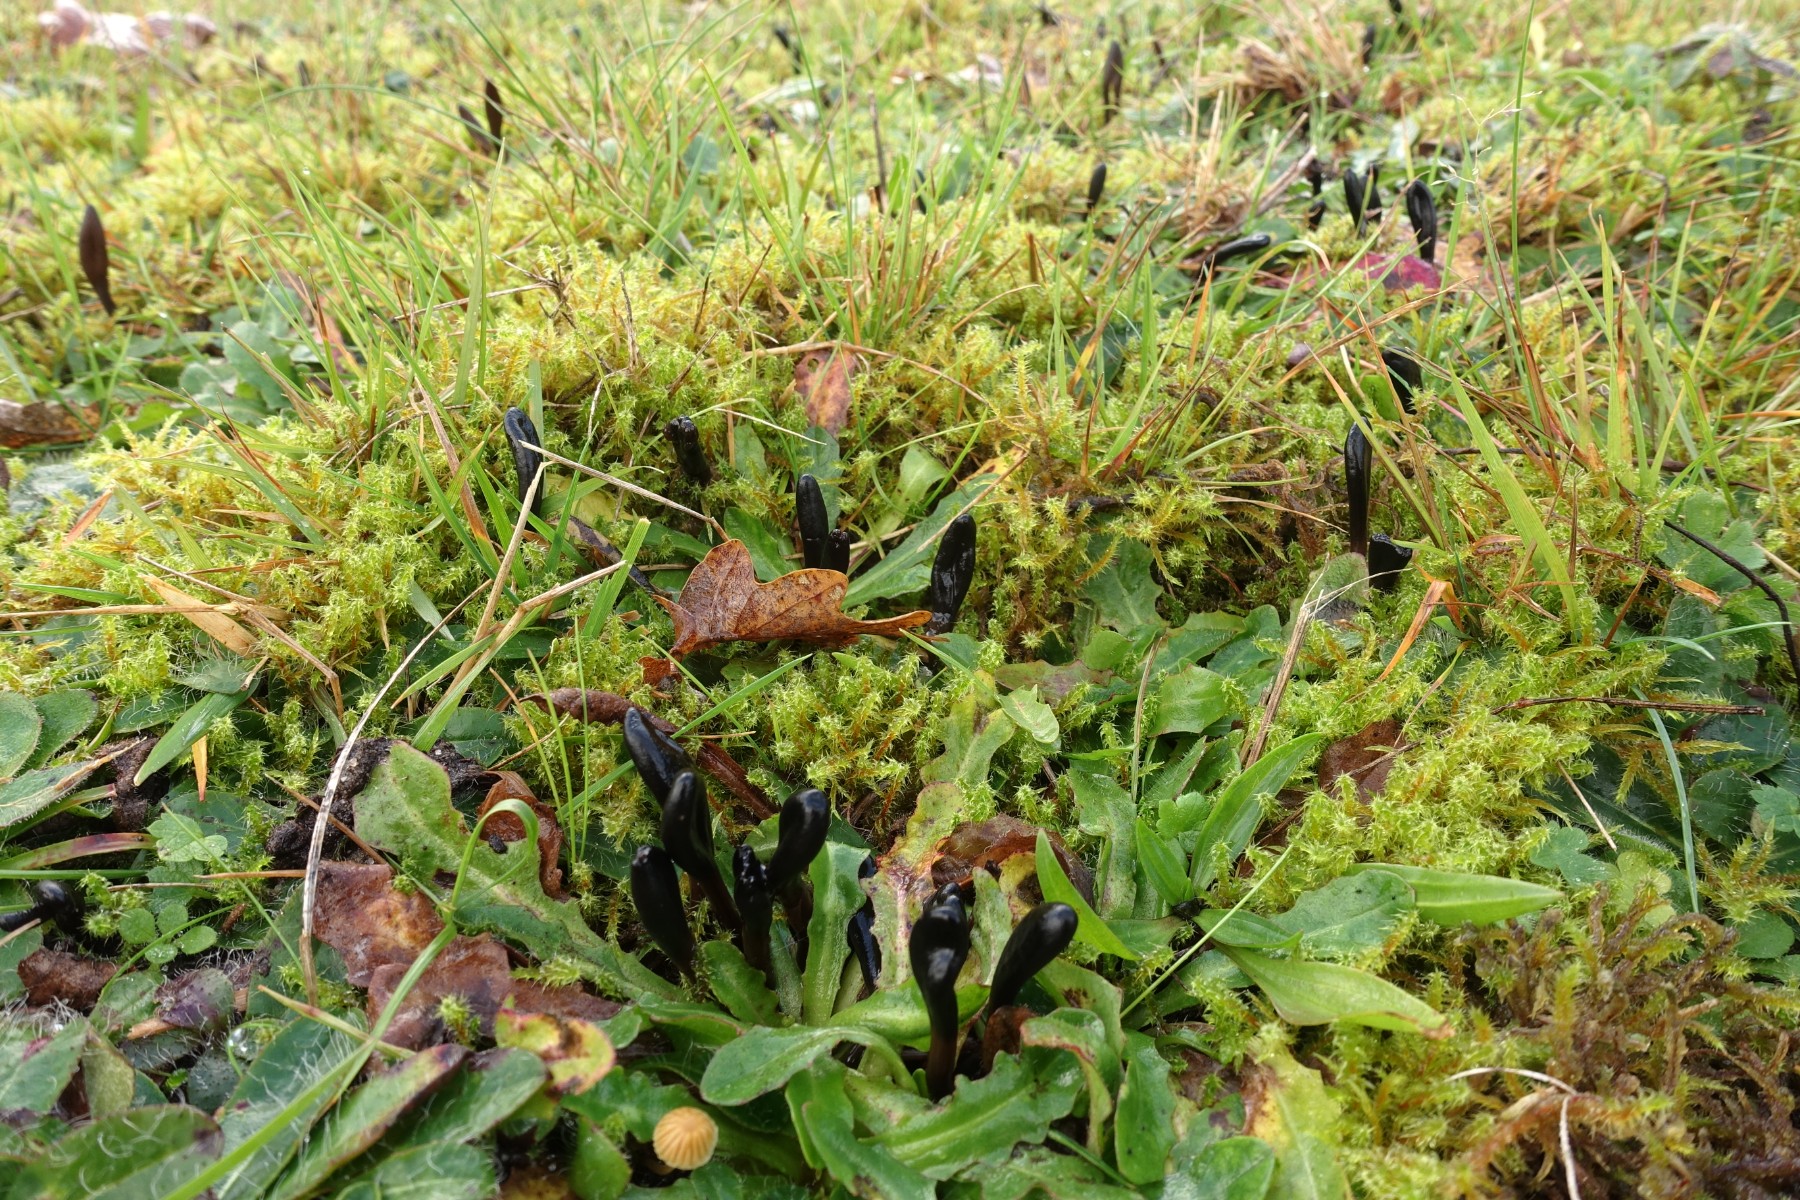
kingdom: Fungi
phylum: Ascomycota
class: Geoglossomycetes
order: Geoglossales
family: Geoglossaceae
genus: Glutinoglossum
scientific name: Glutinoglossum glutinosum
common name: slimet jordtunge
